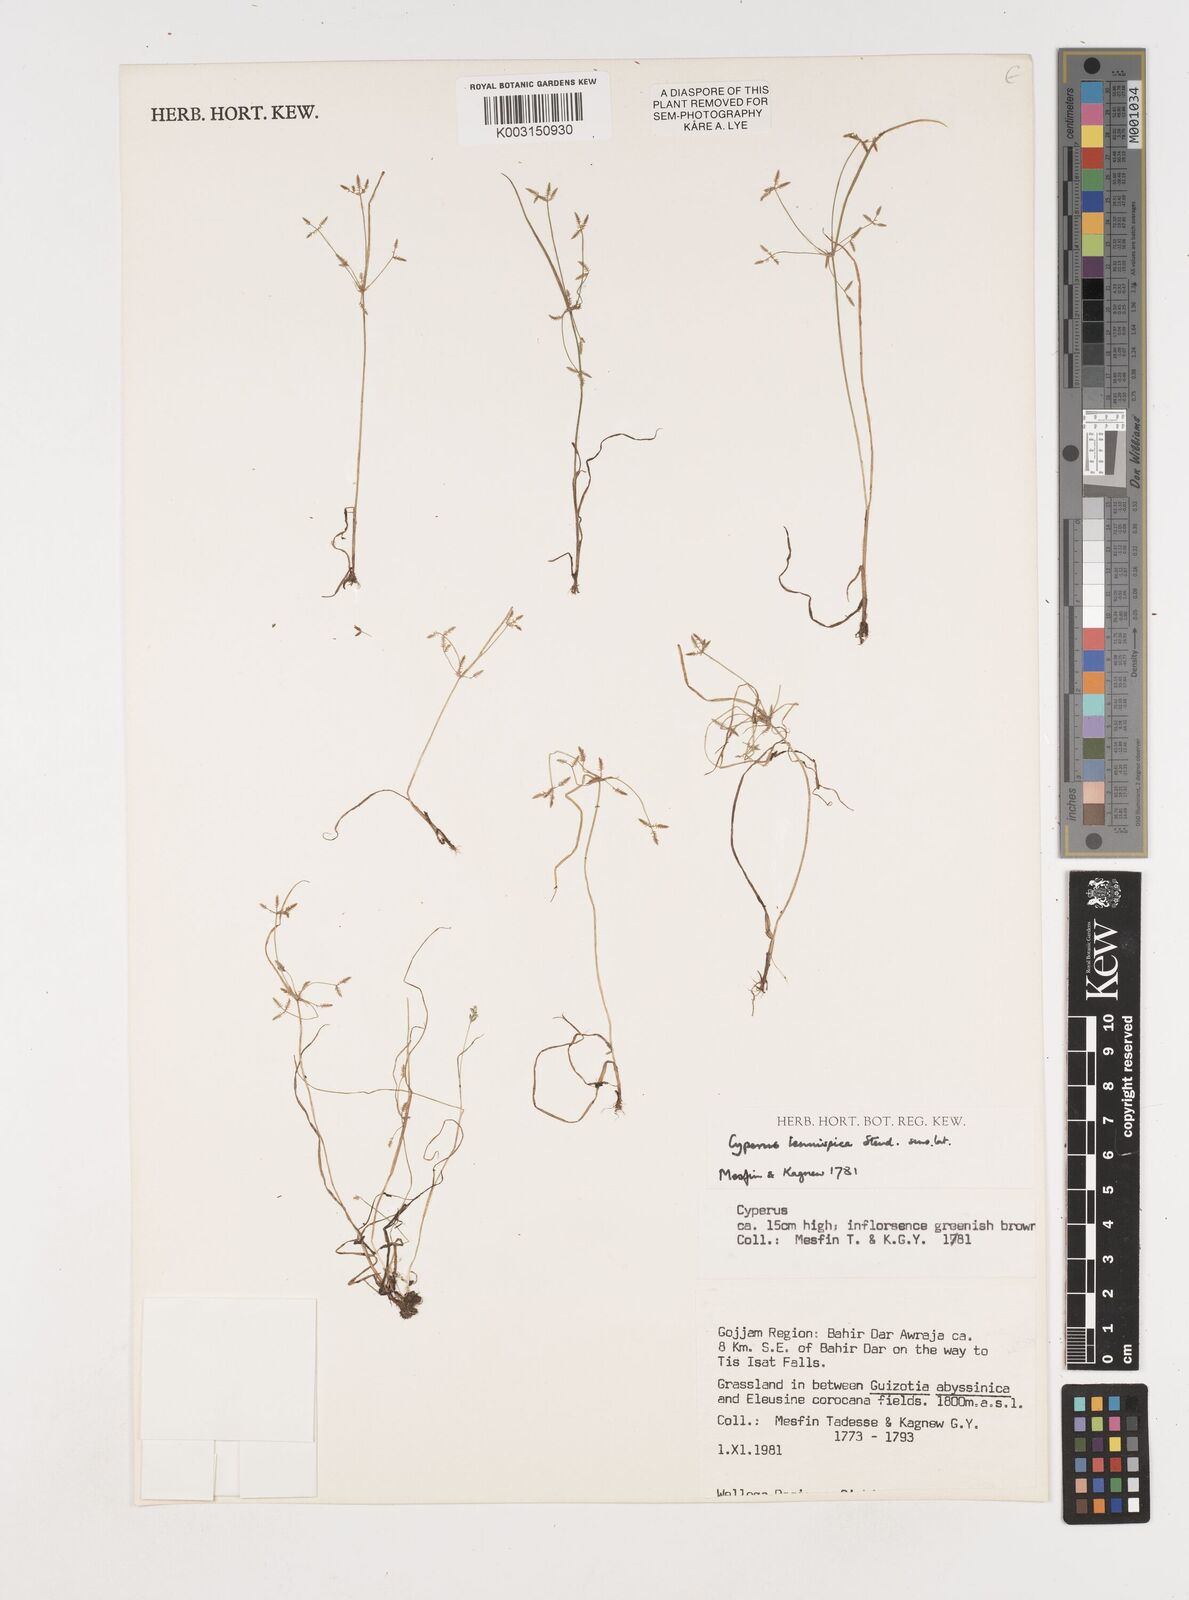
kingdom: Plantae
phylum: Tracheophyta
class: Liliopsida
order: Poales
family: Cyperaceae
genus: Cyperus
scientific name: Cyperus tenuispica
